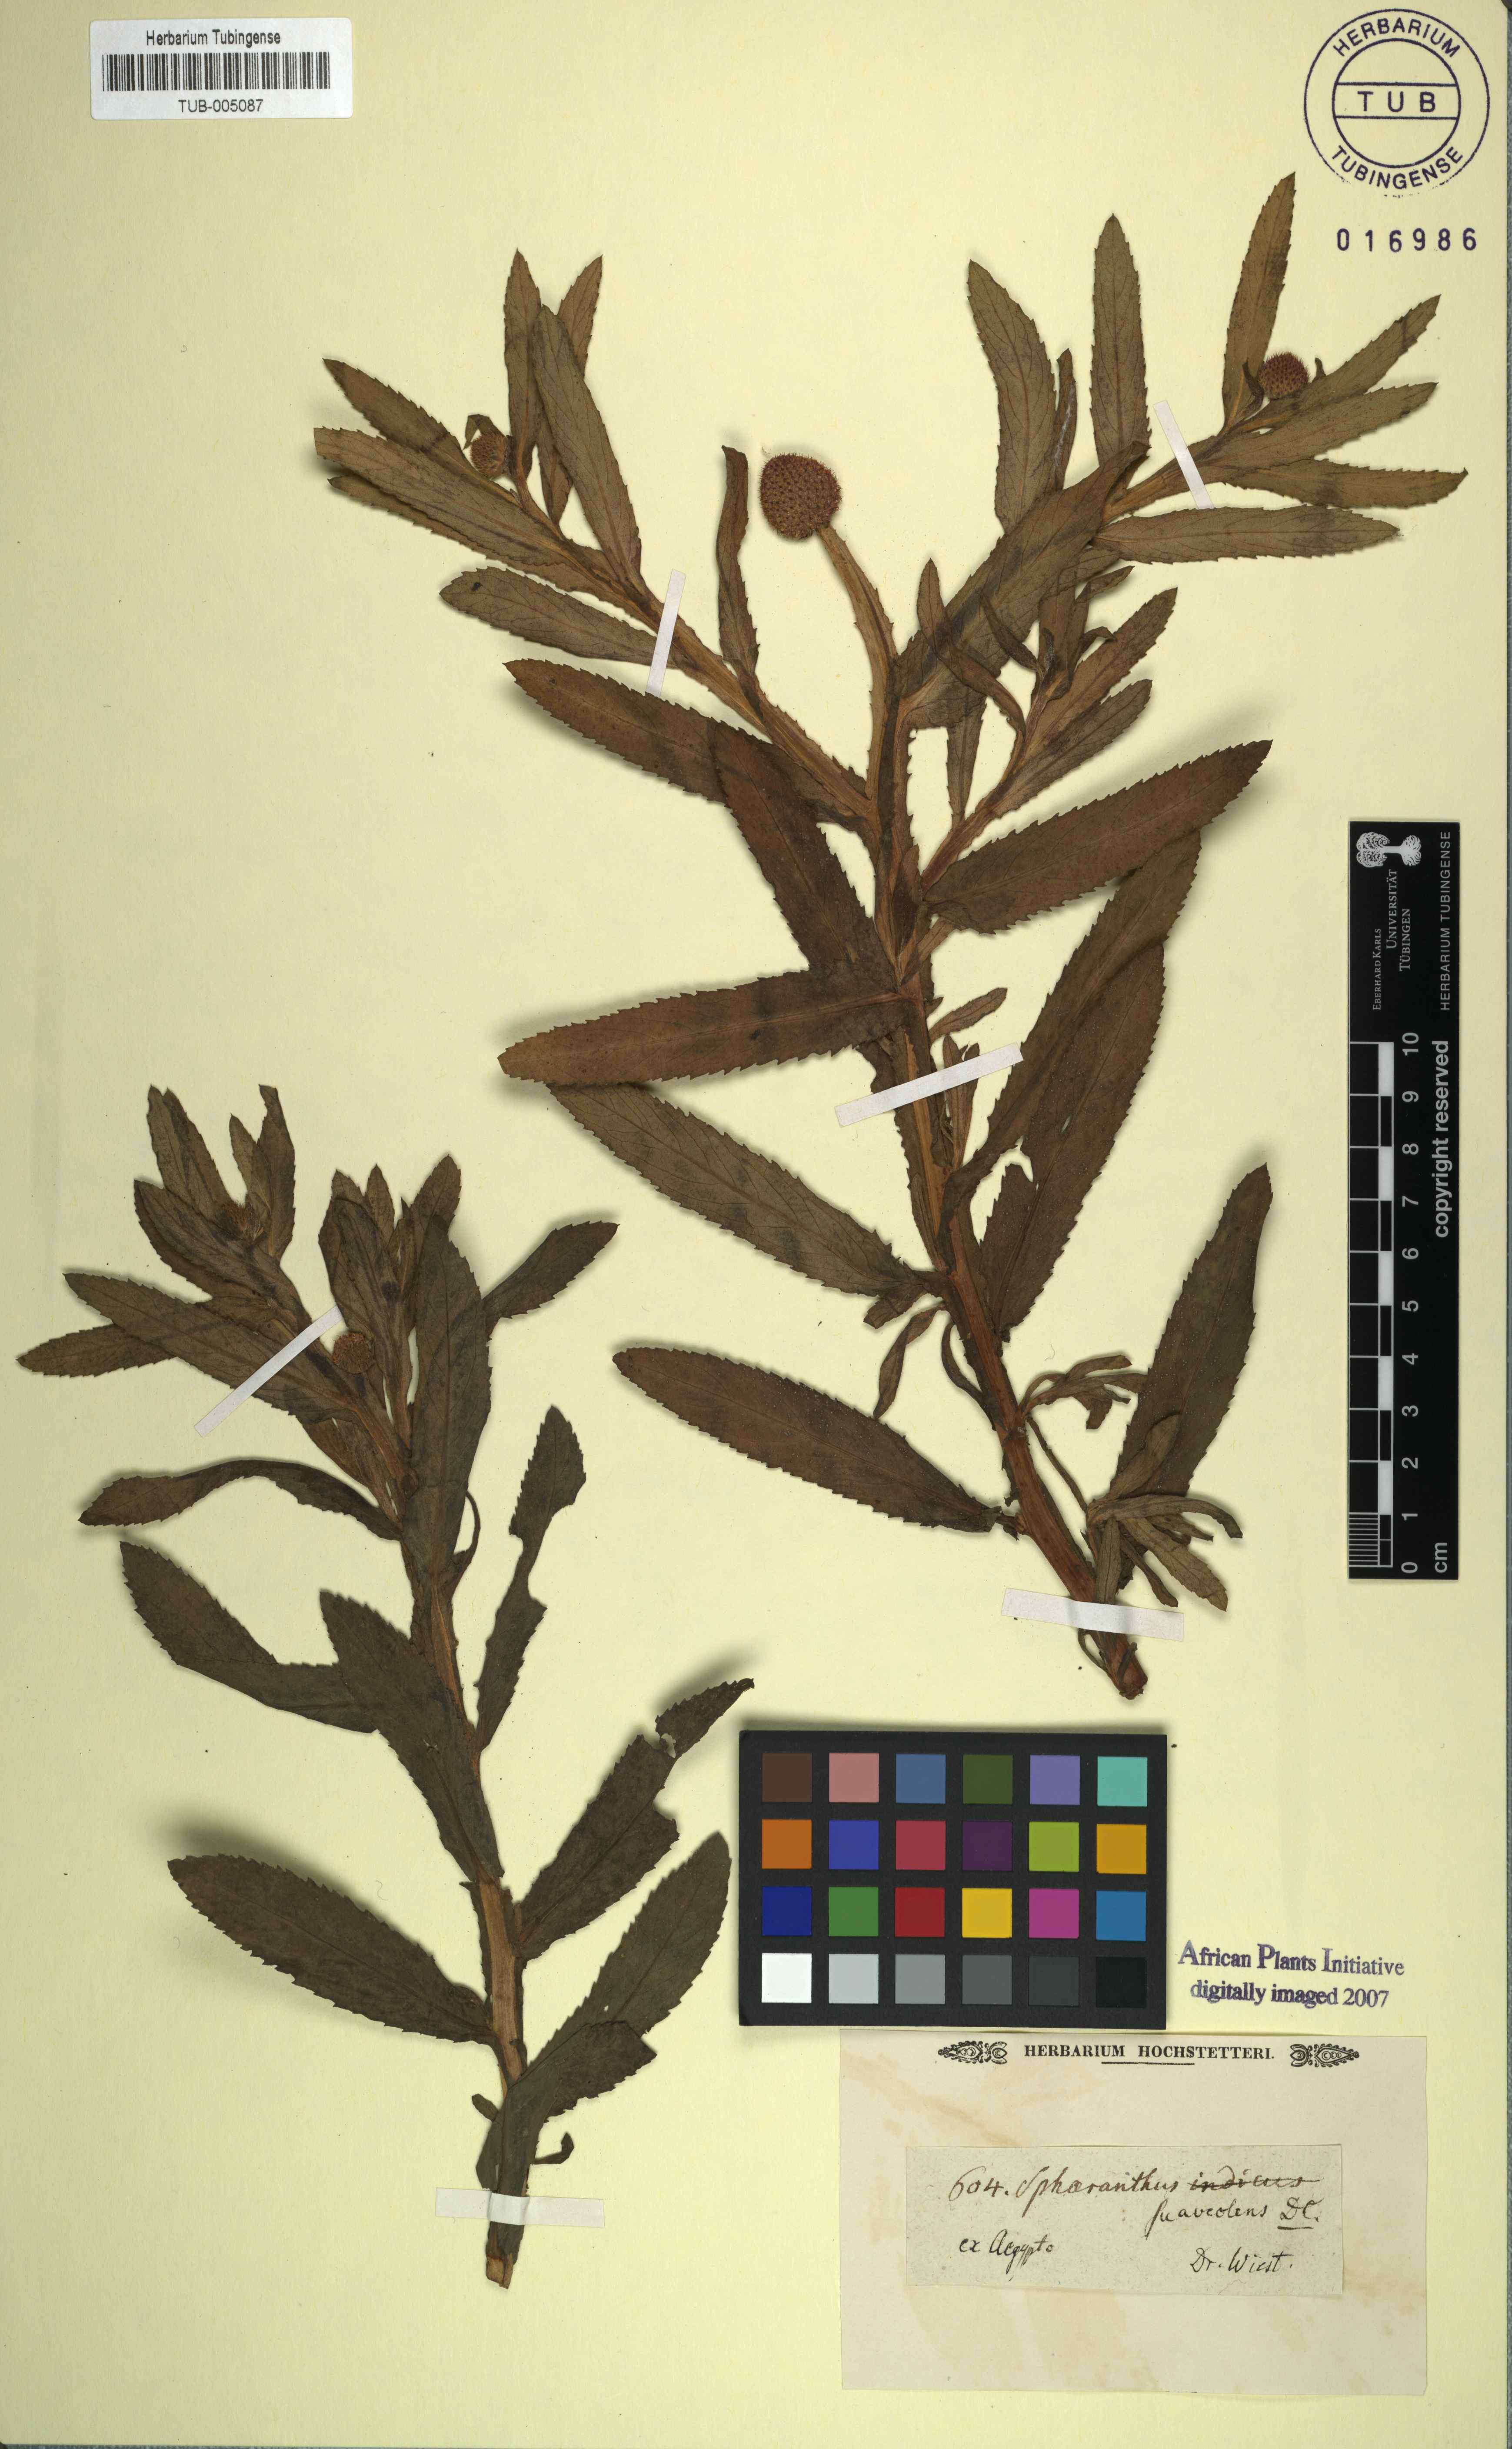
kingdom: Plantae
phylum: Tracheophyta
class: Magnoliopsida
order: Asterales
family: Asteraceae
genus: Sphaeranthus
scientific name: Sphaeranthus suaveolens
